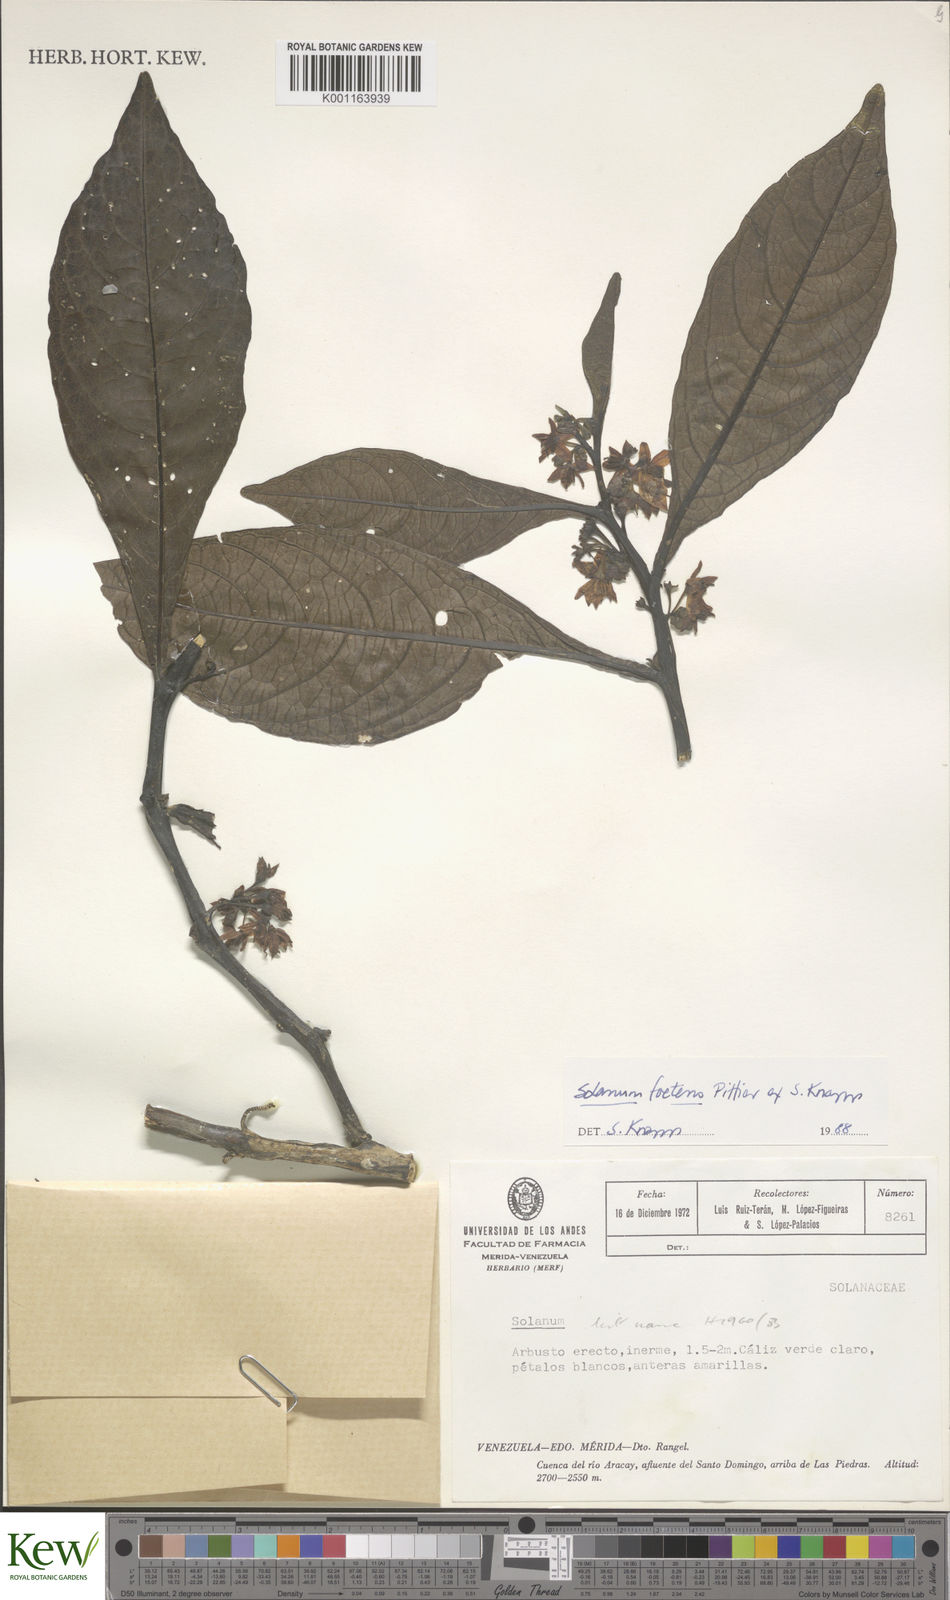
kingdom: Plantae
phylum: Tracheophyta
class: Magnoliopsida
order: Solanales
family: Solanaceae
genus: Solanum
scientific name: Solanum foetens
